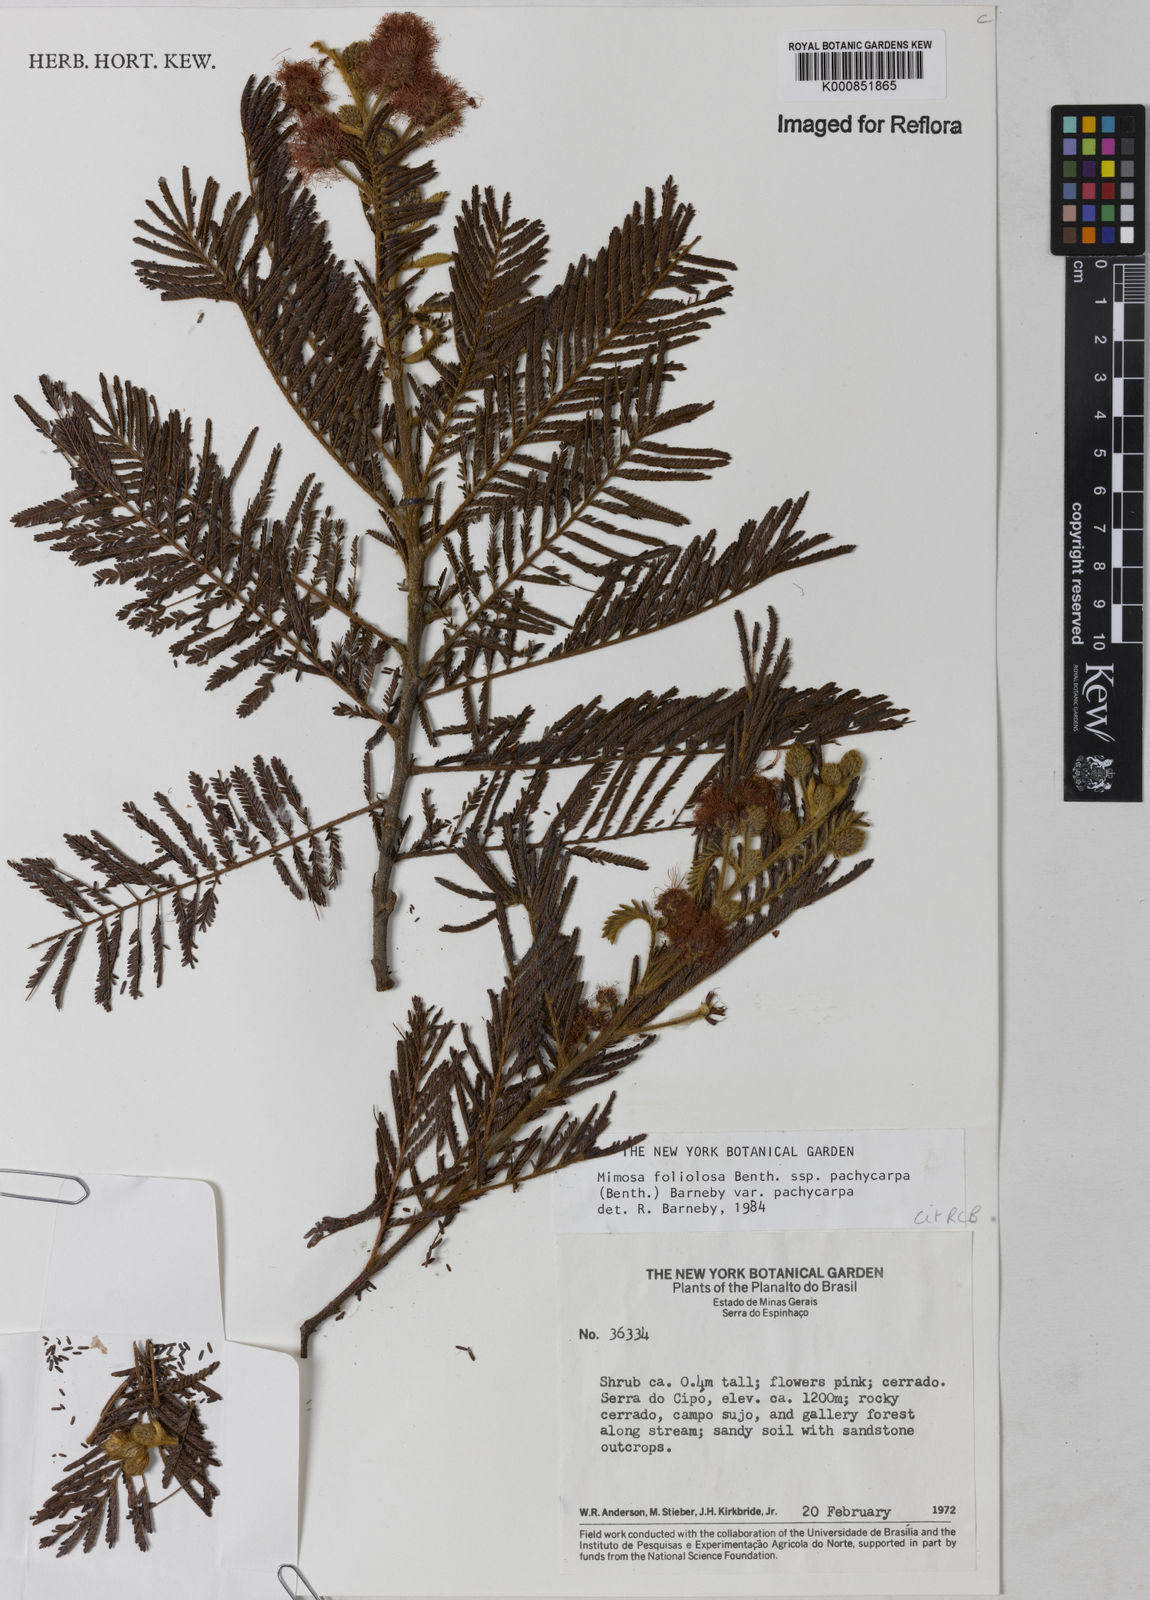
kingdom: Plantae
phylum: Tracheophyta
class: Magnoliopsida
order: Fabales
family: Fabaceae
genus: Mimosa
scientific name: Mimosa foliolosa
